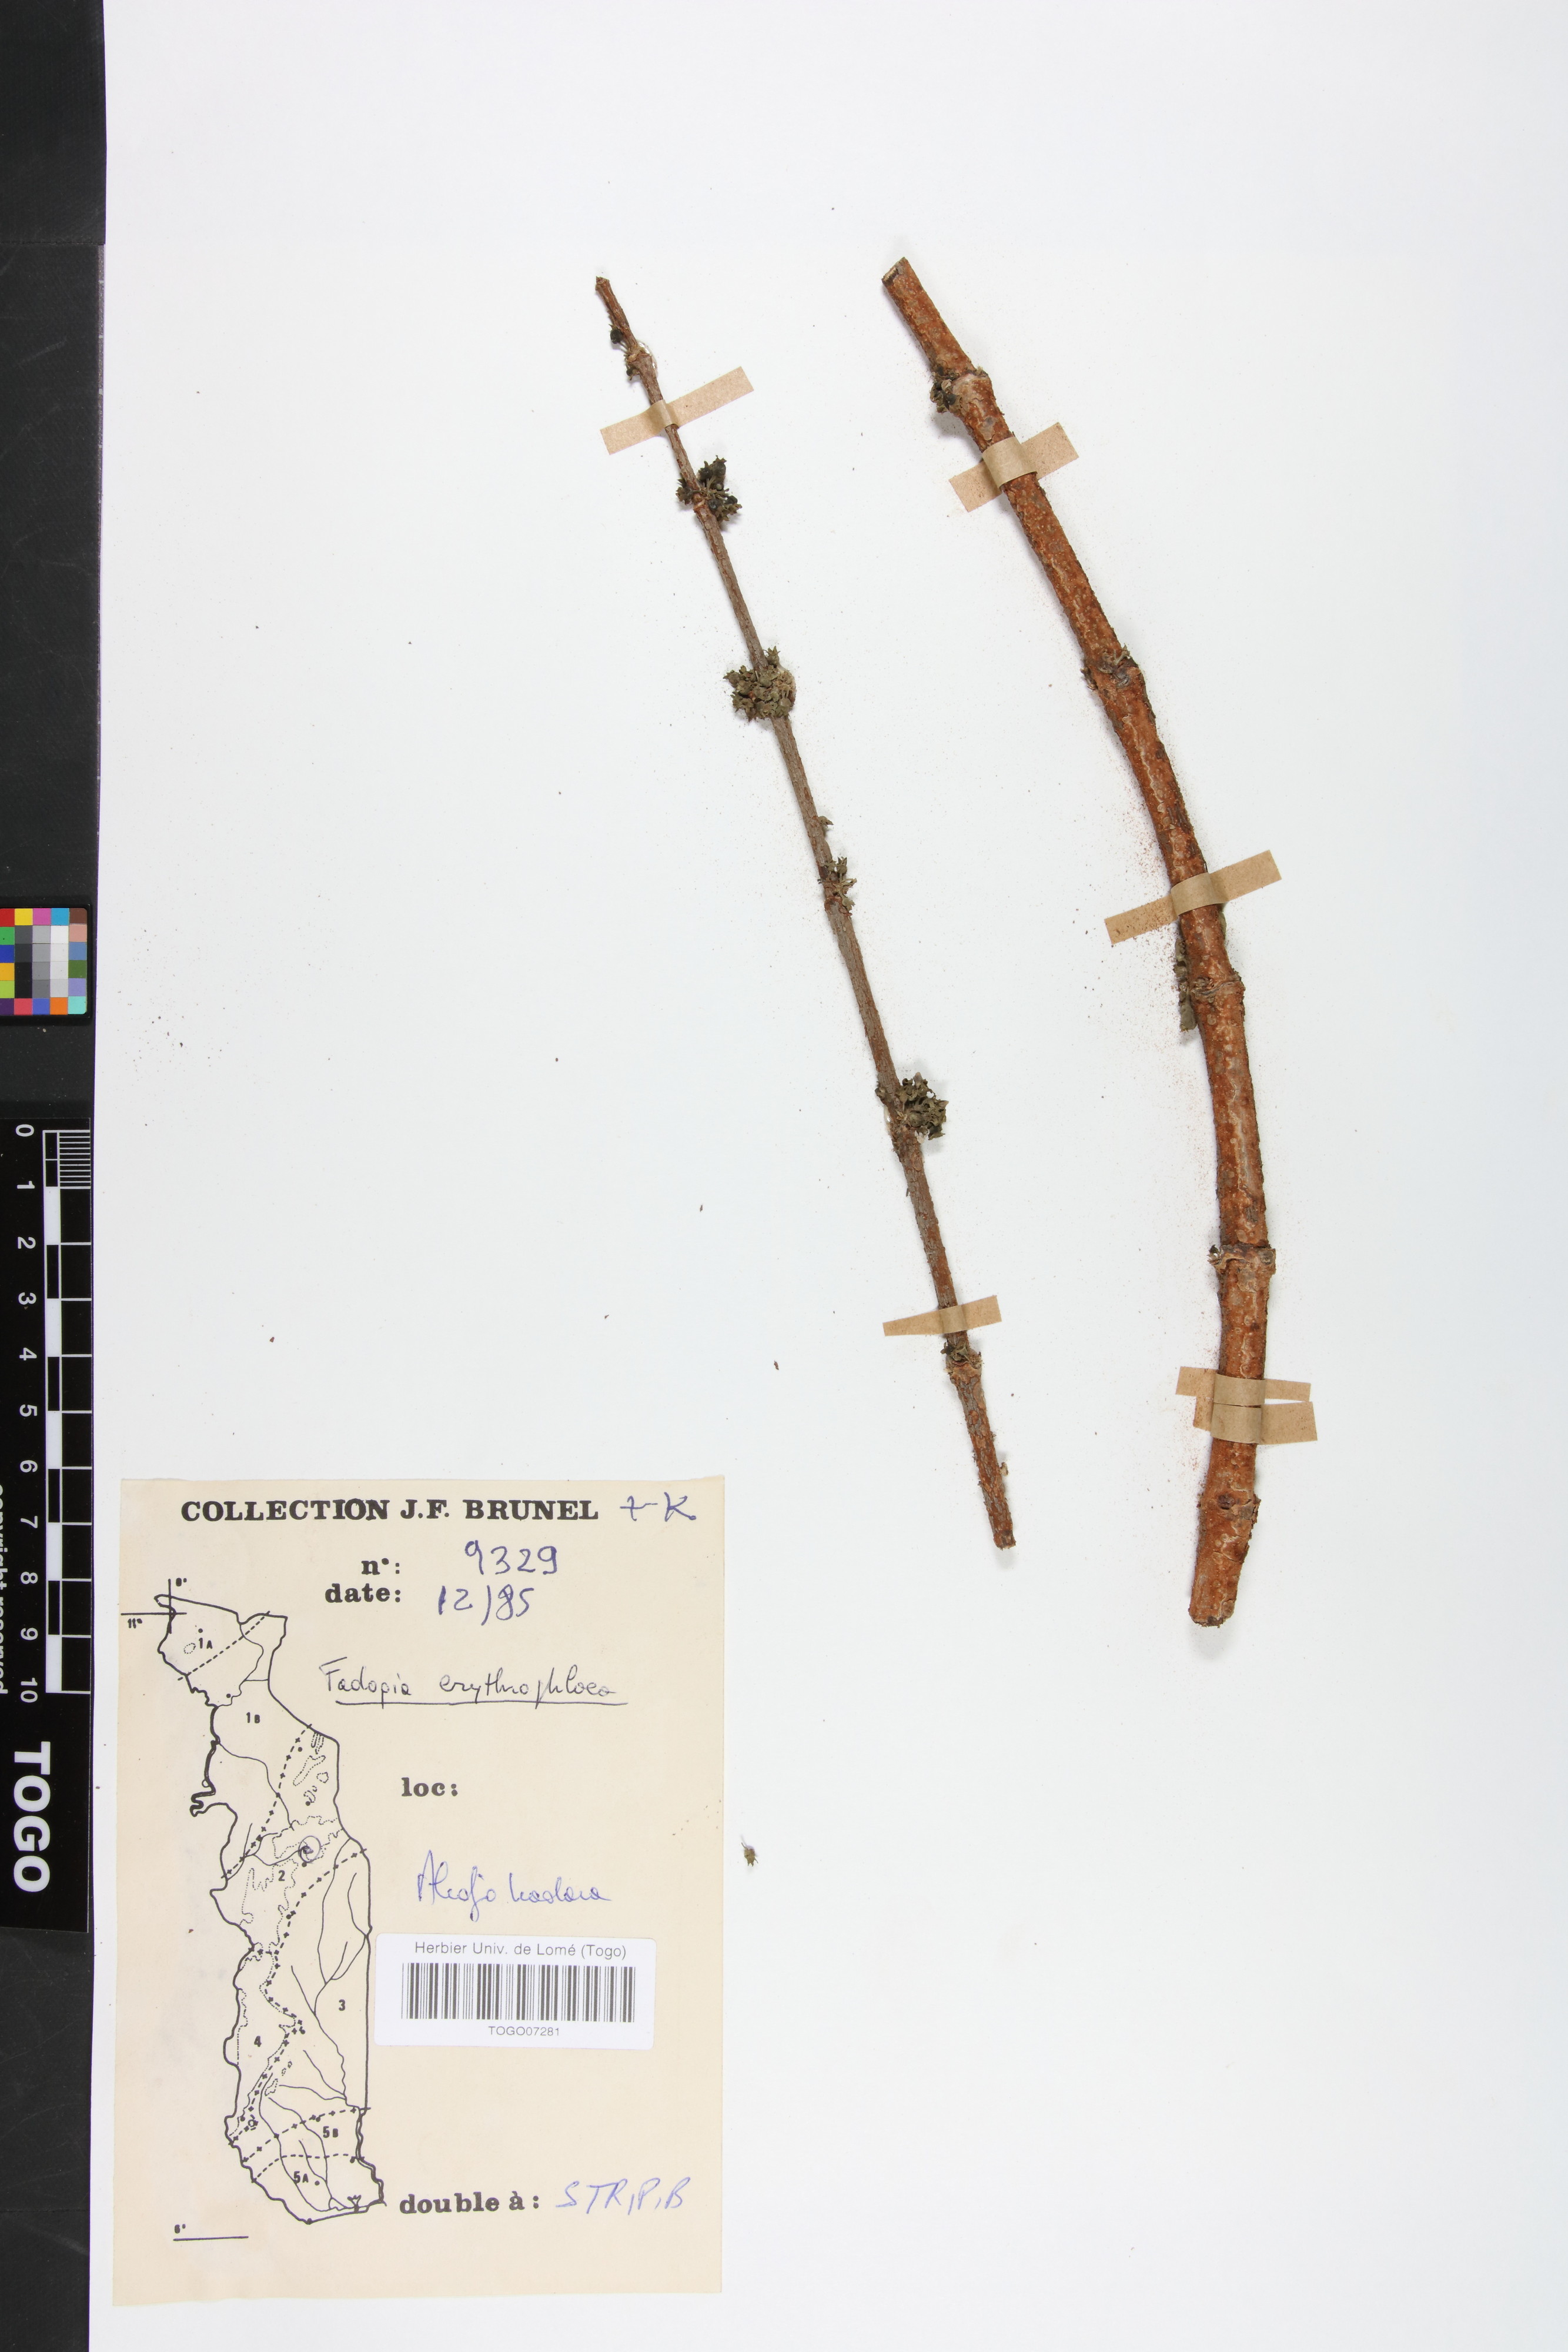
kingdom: Plantae
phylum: Tracheophyta
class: Magnoliopsida
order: Gentianales
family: Rubiaceae
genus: Fadogia
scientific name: Fadogia erythrophloea
